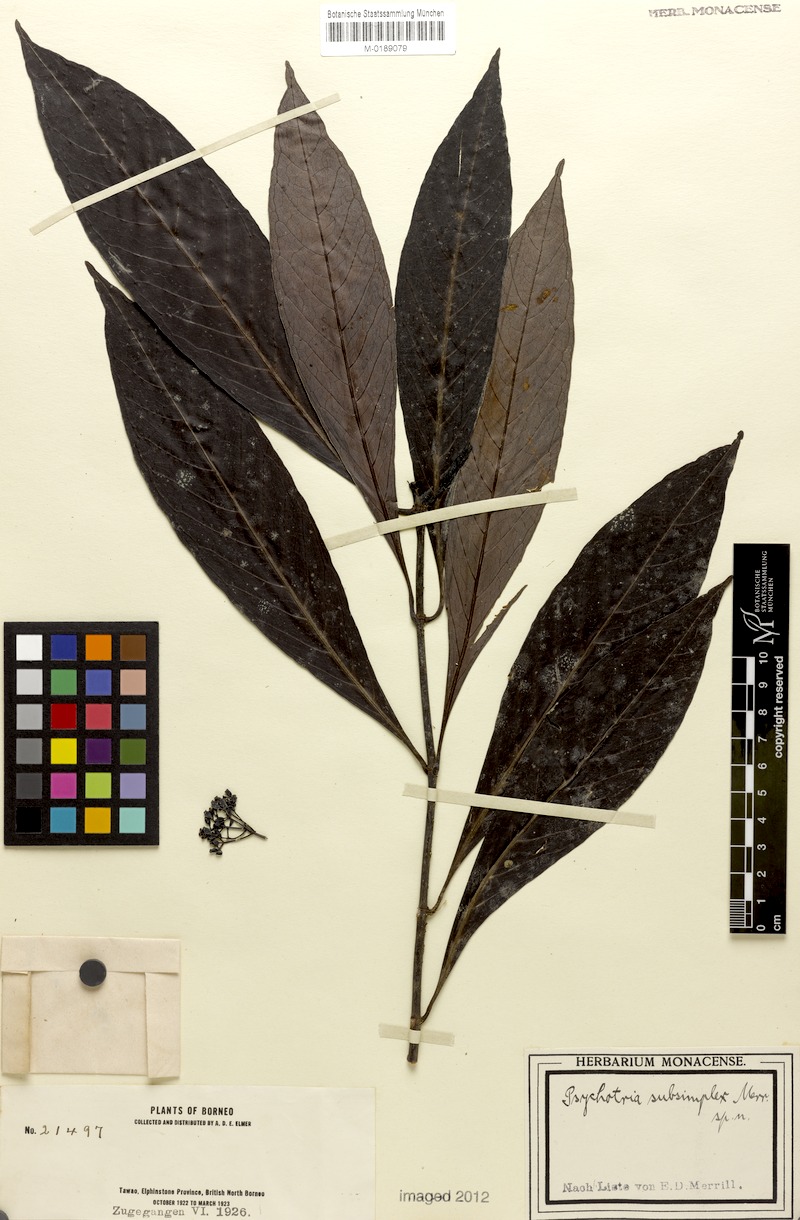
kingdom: Plantae
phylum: Tracheophyta
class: Magnoliopsida
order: Gentianales
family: Rubiaceae
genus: Psychotria
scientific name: Psychotria subsimplex
